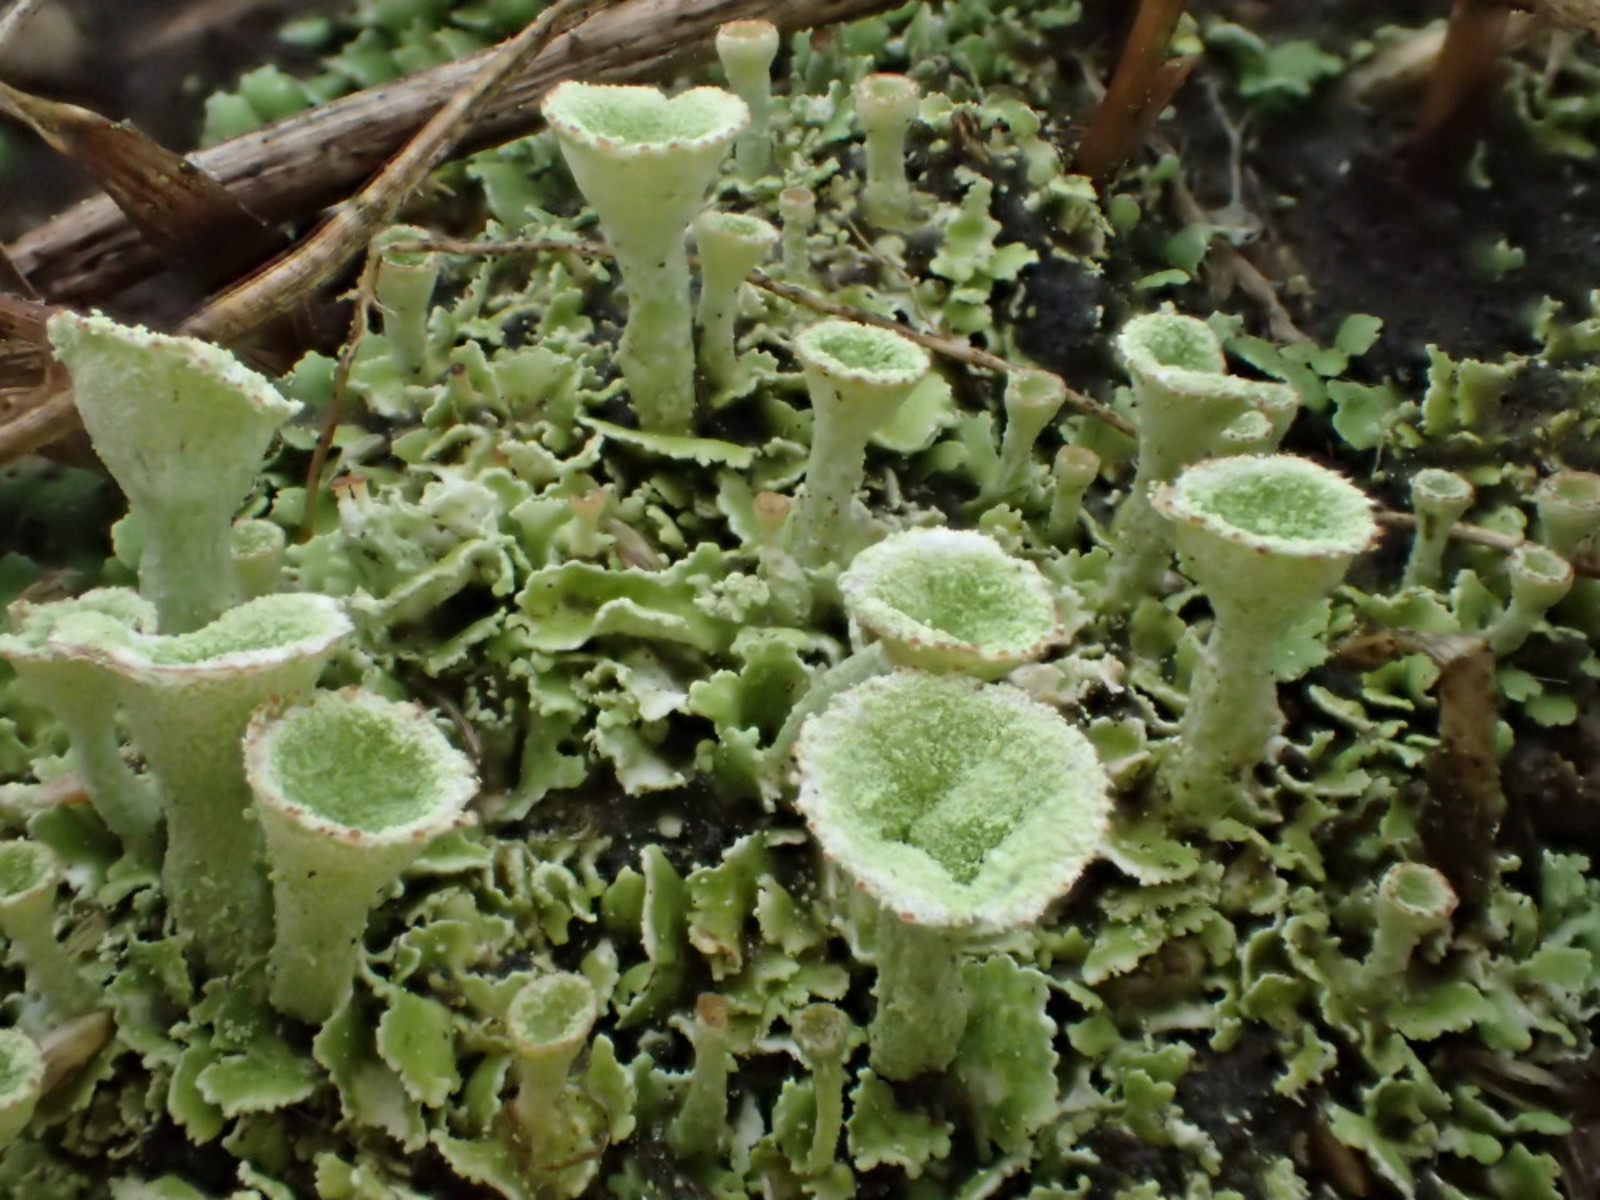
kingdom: Fungi
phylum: Ascomycota
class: Lecanoromycetes
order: Lecanorales
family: Cladoniaceae
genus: Cladonia
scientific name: Cladonia humilis
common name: lav bægerlav
